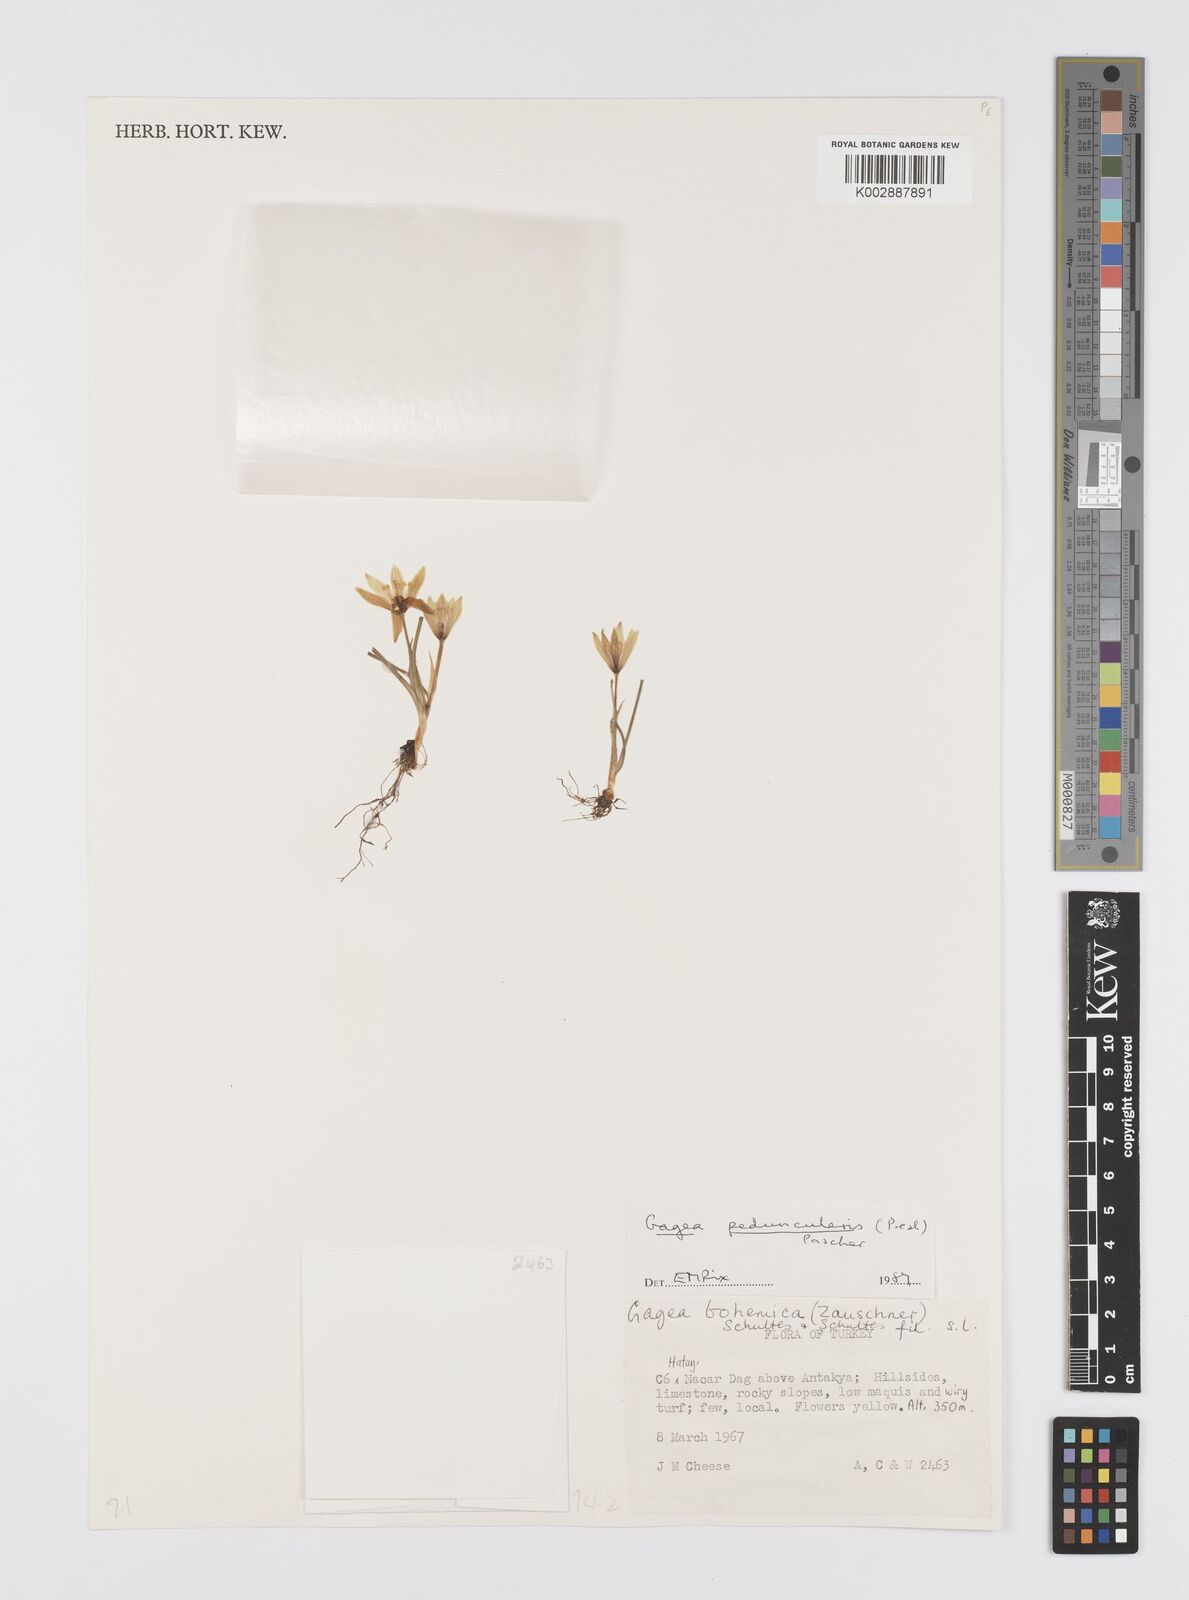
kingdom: Plantae
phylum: Tracheophyta
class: Liliopsida
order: Liliales
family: Liliaceae
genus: Gagea
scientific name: Gagea peduncularis
